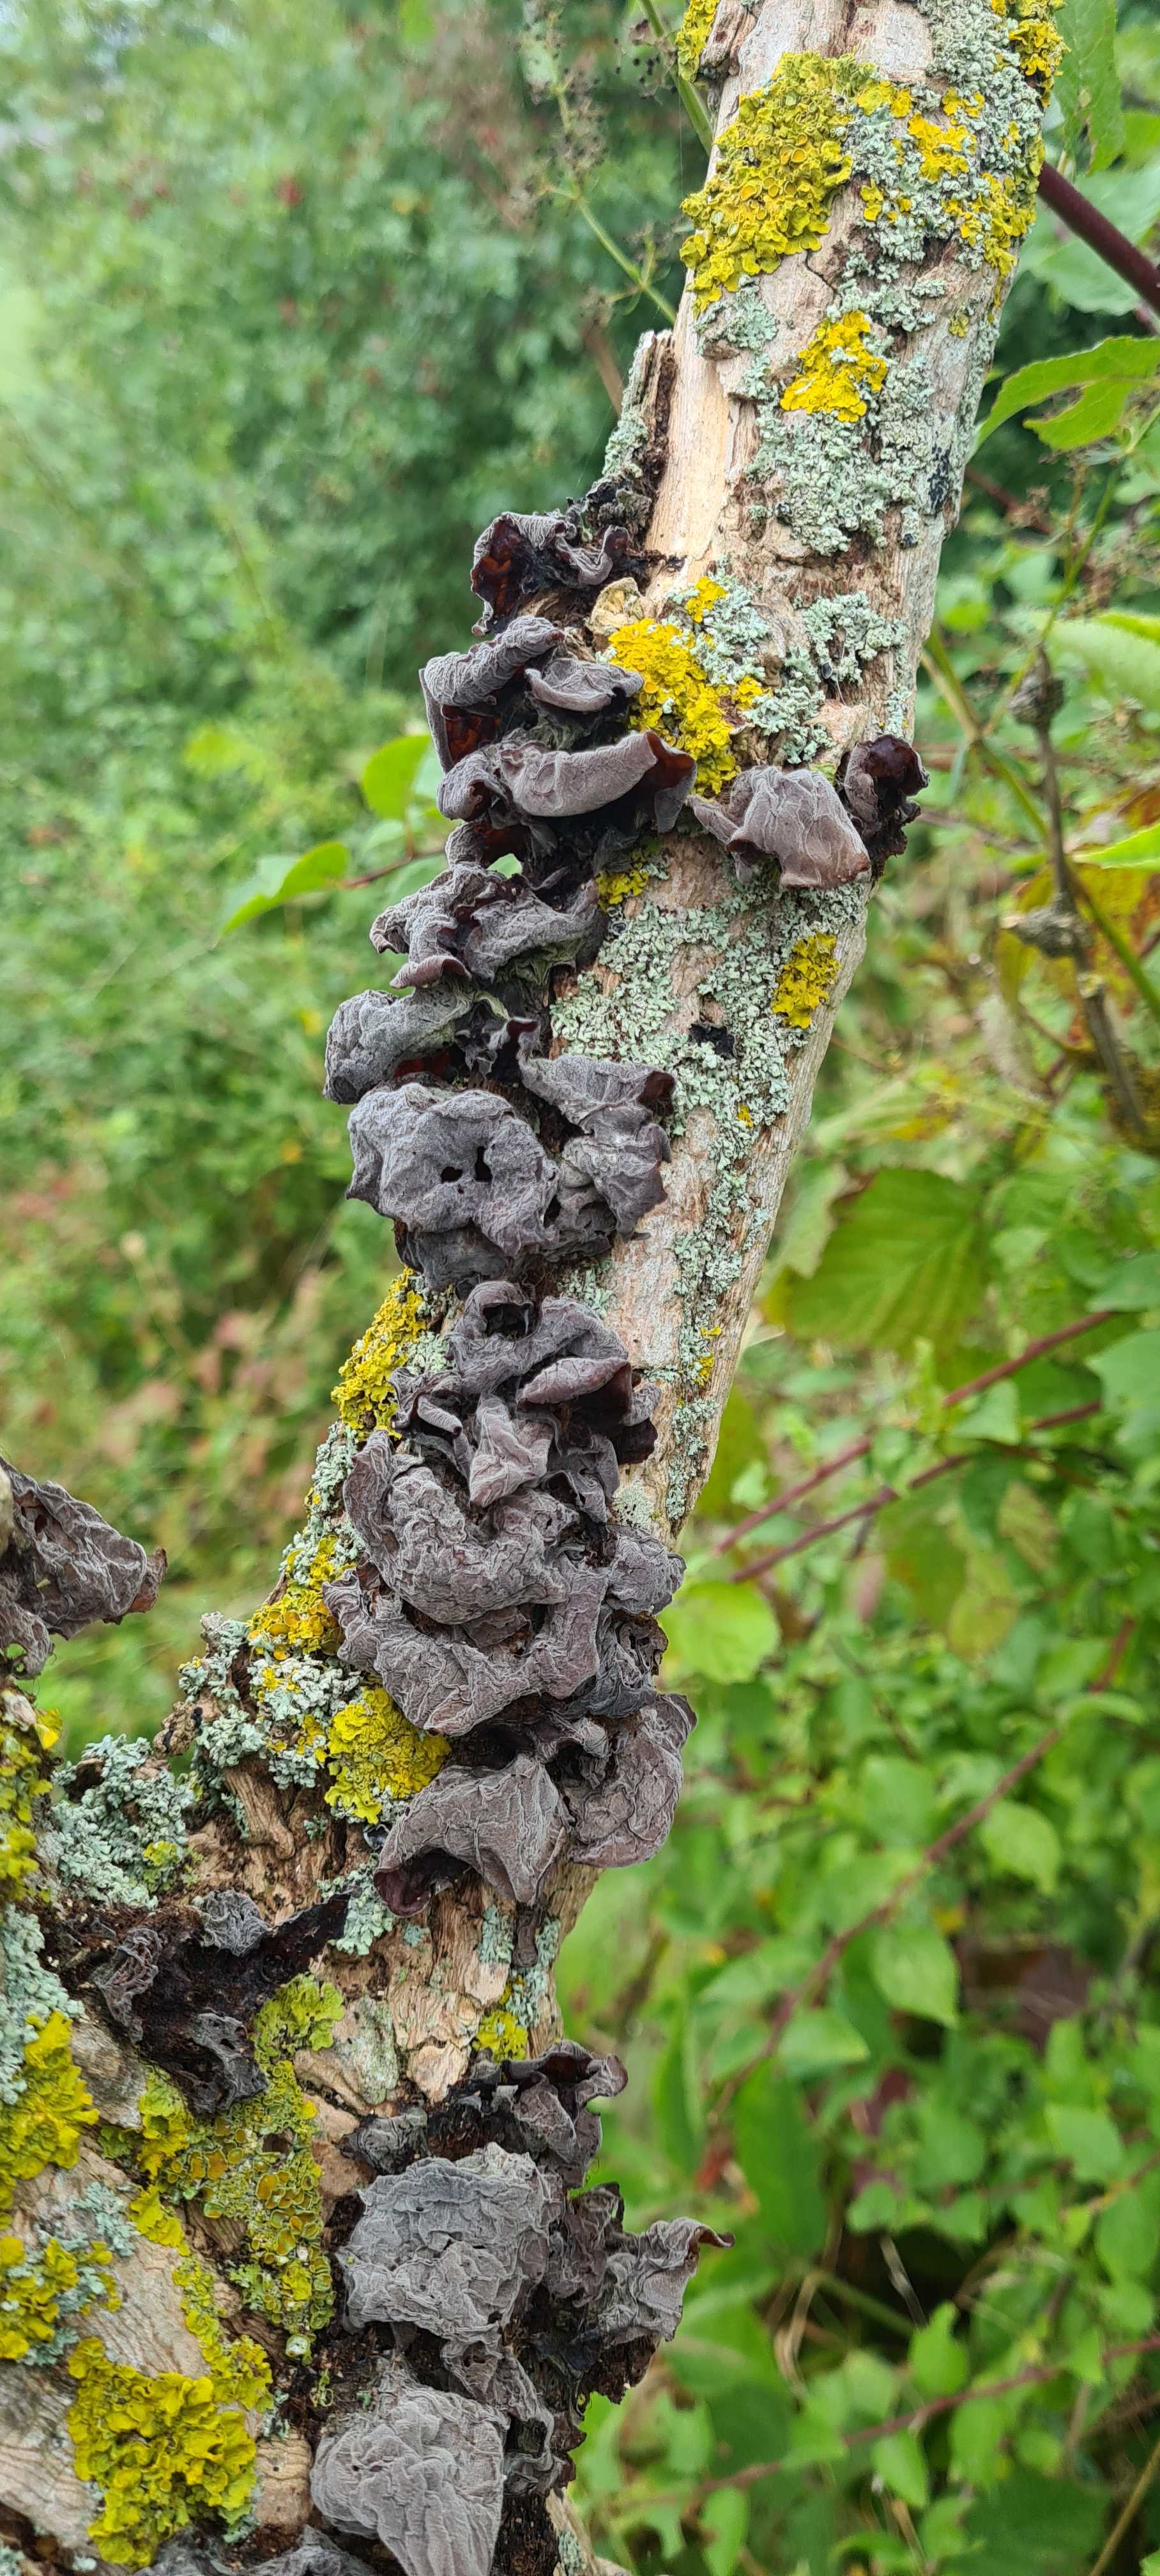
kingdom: Fungi
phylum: Basidiomycota
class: Agaricomycetes
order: Auriculariales
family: Auriculariaceae
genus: Auricularia
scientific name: Auricularia auricula-judae
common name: almindelig judasøre
